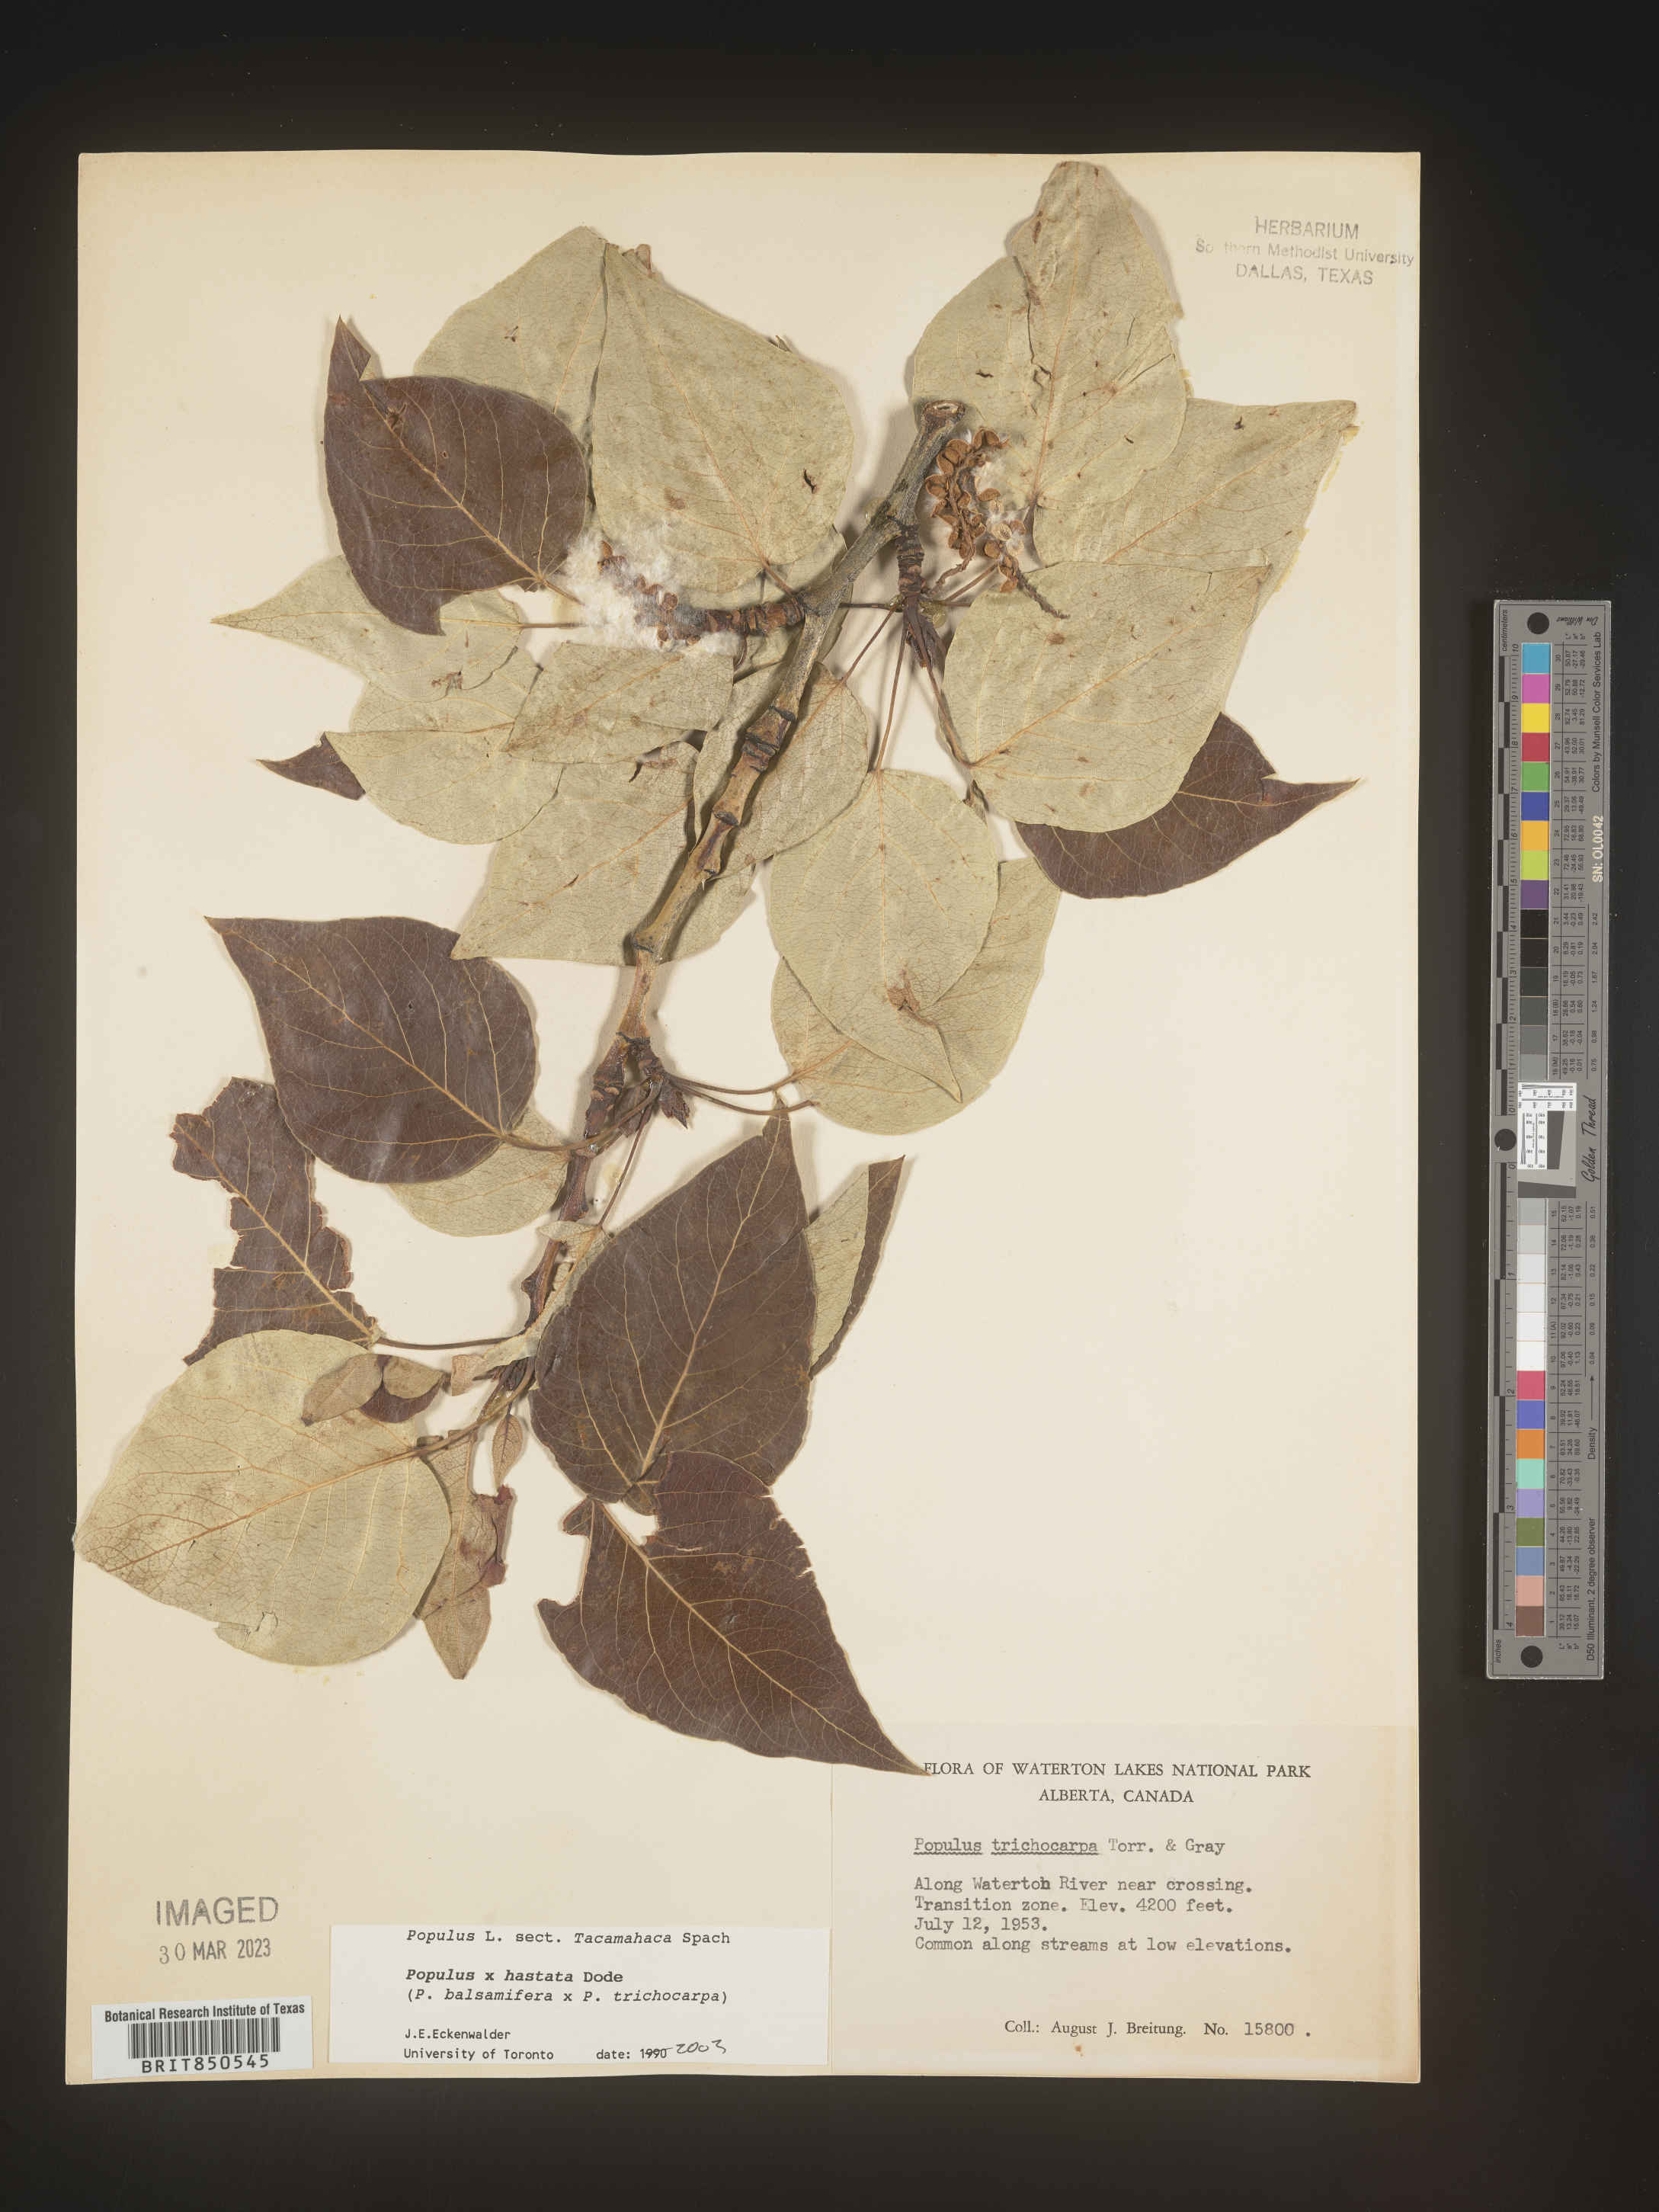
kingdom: Plantae
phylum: Tracheophyta
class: Magnoliopsida
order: Malpighiales
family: Salicaceae
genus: Populus
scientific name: Populus
